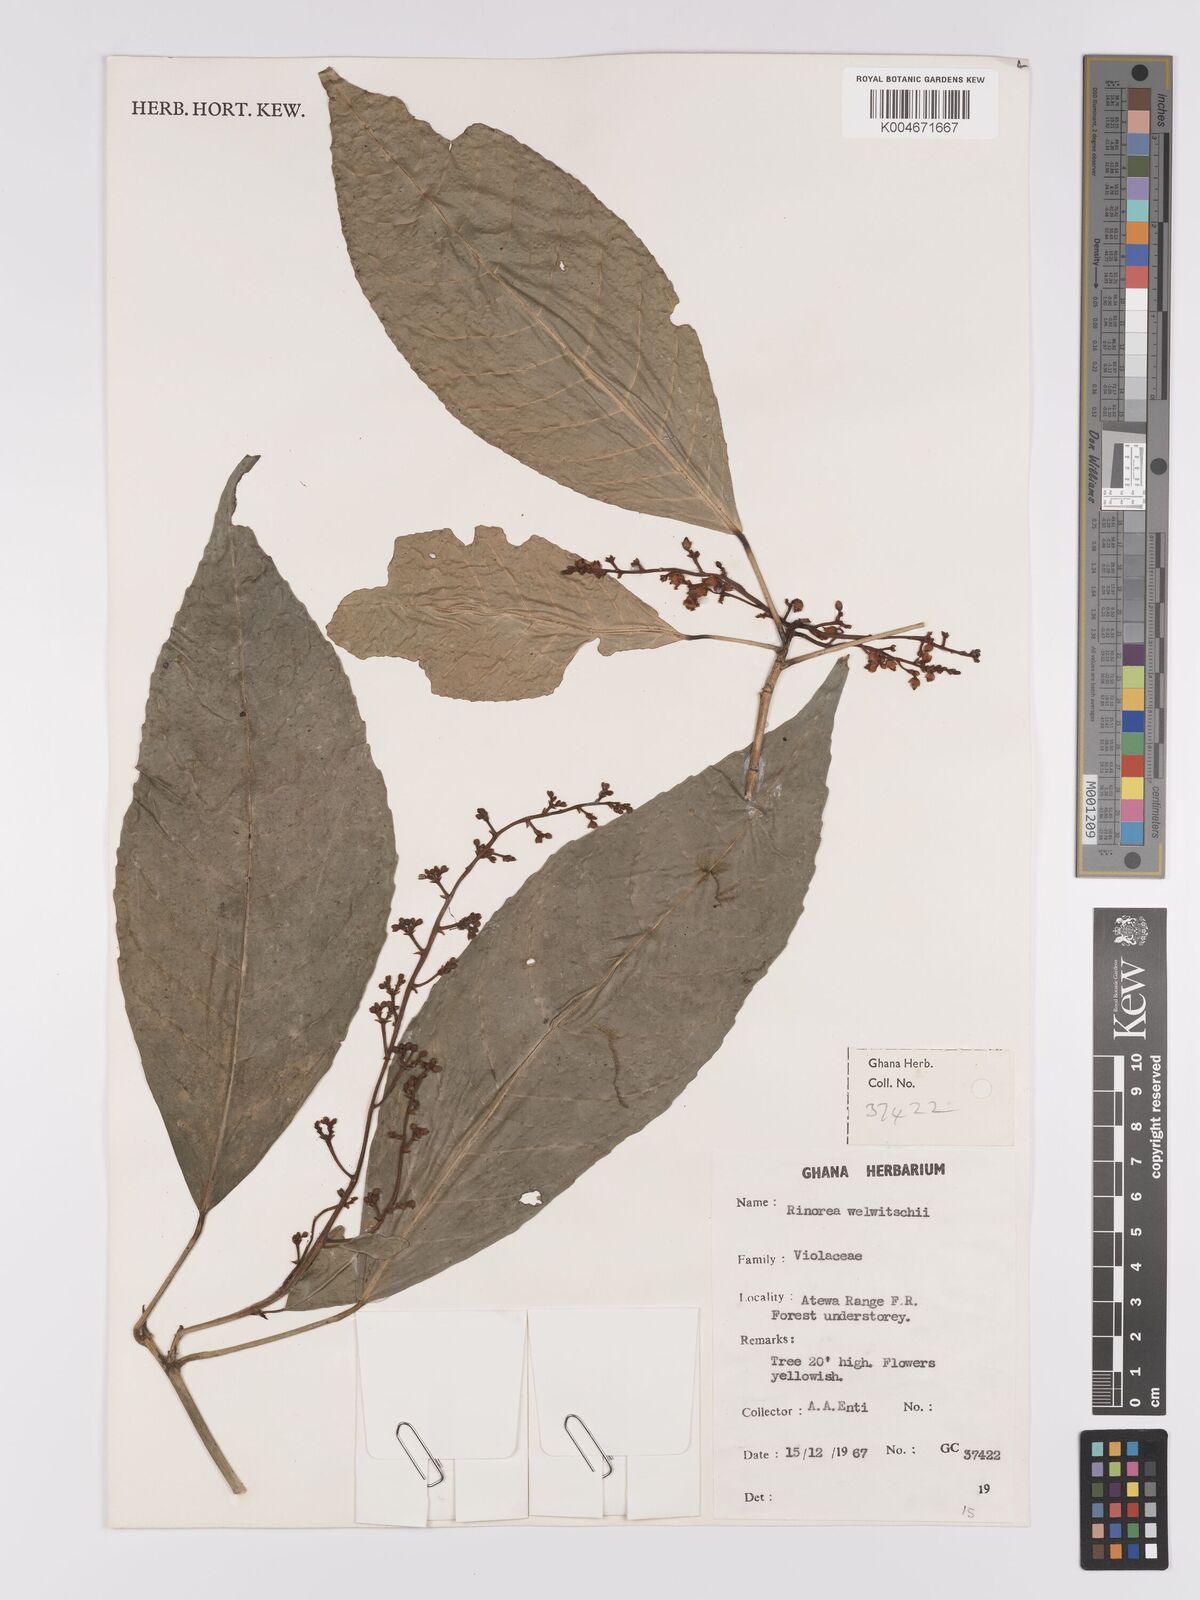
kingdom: Plantae
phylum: Tracheophyta
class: Magnoliopsida
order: Malpighiales
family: Violaceae
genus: Rinorea
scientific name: Rinorea welwitschii
